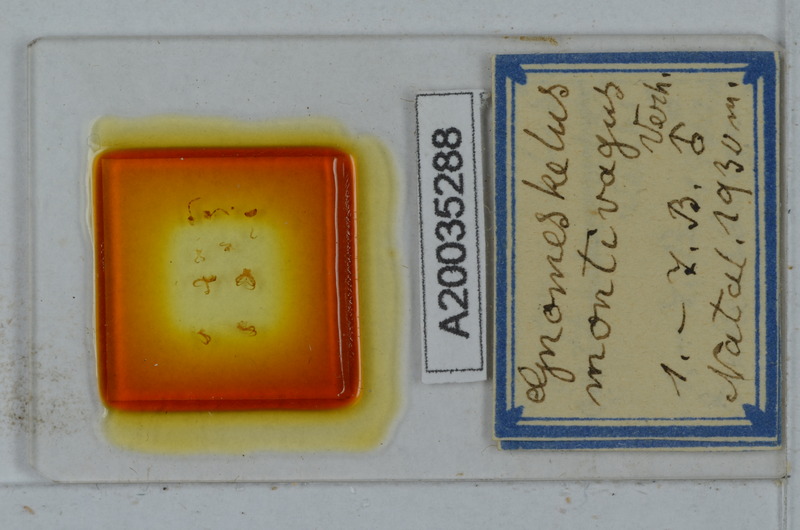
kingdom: Animalia
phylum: Arthropoda
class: Diplopoda
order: Polydesmida
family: Dalodesmidae
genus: Gnomeskelus
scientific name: Gnomeskelus montivagus
